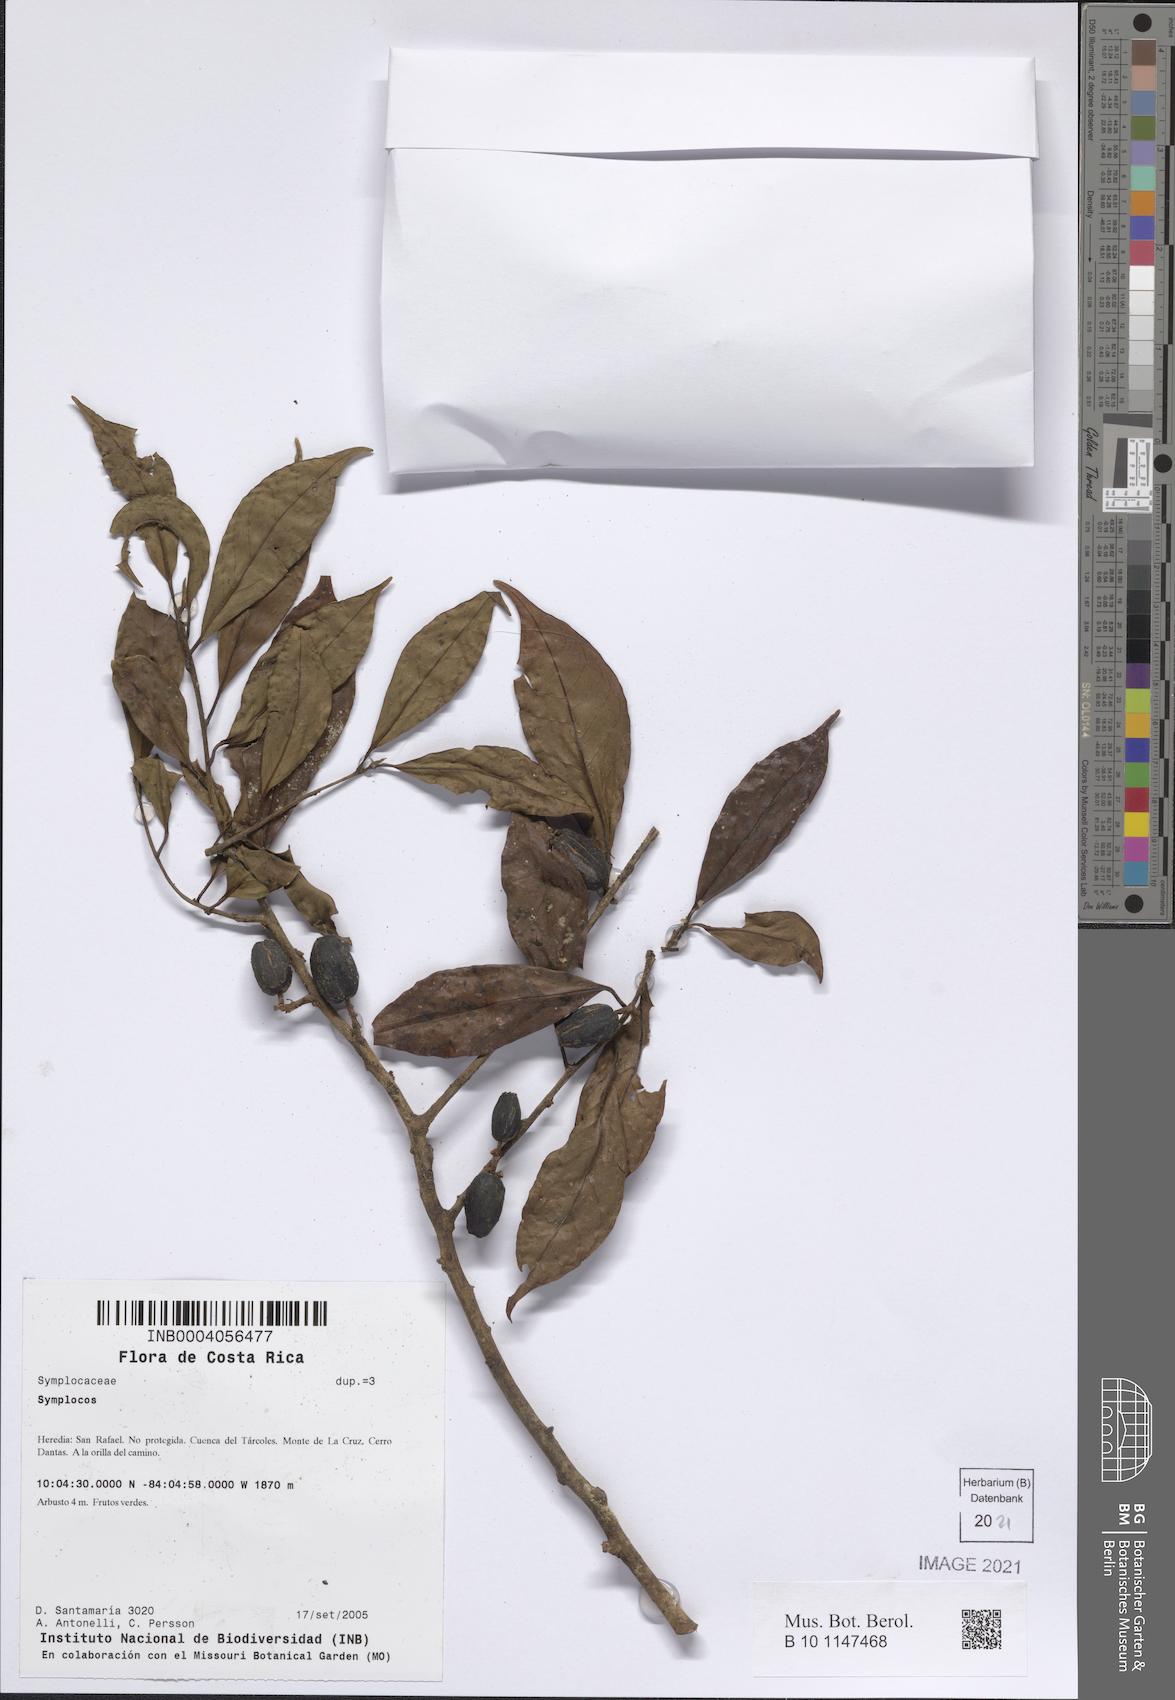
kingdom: Plantae
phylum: Tracheophyta
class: Magnoliopsida
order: Ericales
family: Symplocaceae
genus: Symplocos
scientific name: Symplocos
